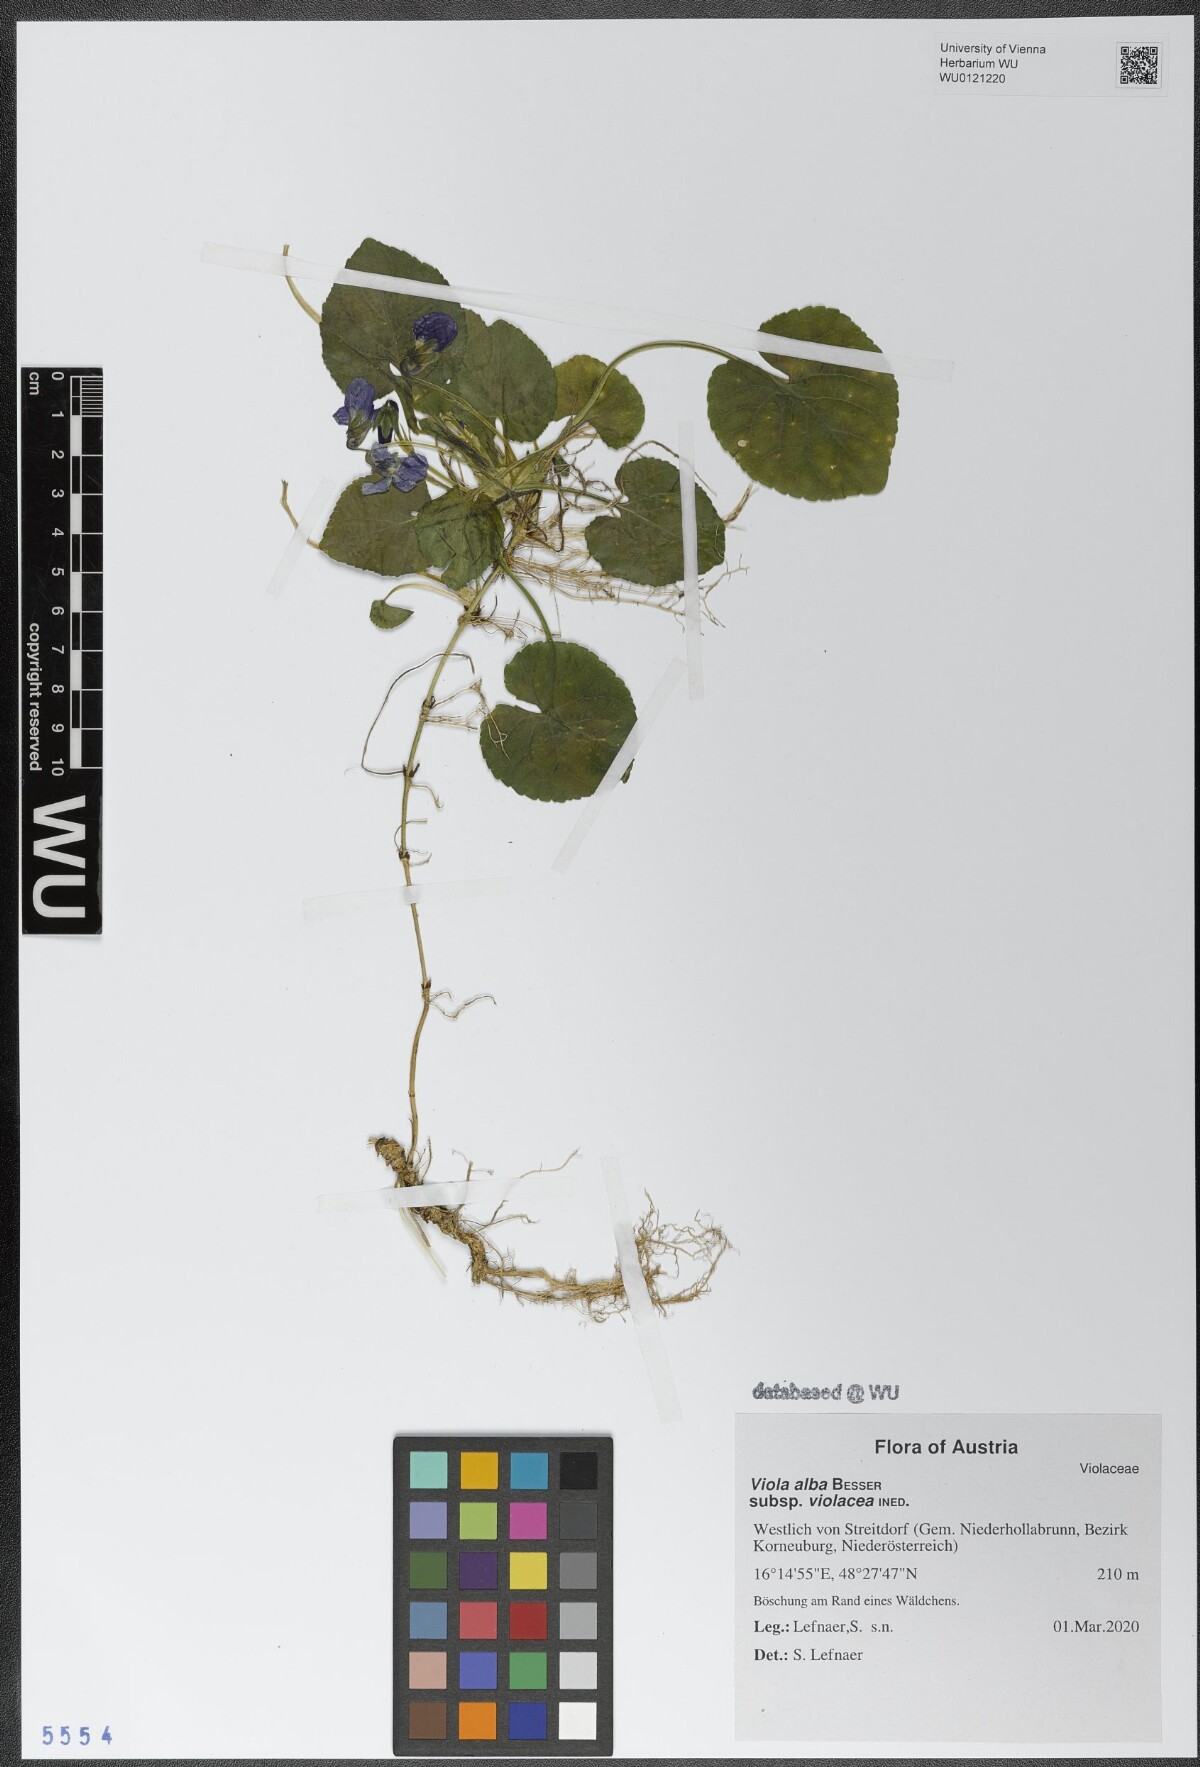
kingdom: Plantae
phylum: Tracheophyta
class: Magnoliopsida
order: Malpighiales
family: Violaceae
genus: Viola
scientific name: Viola alba
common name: White violet
